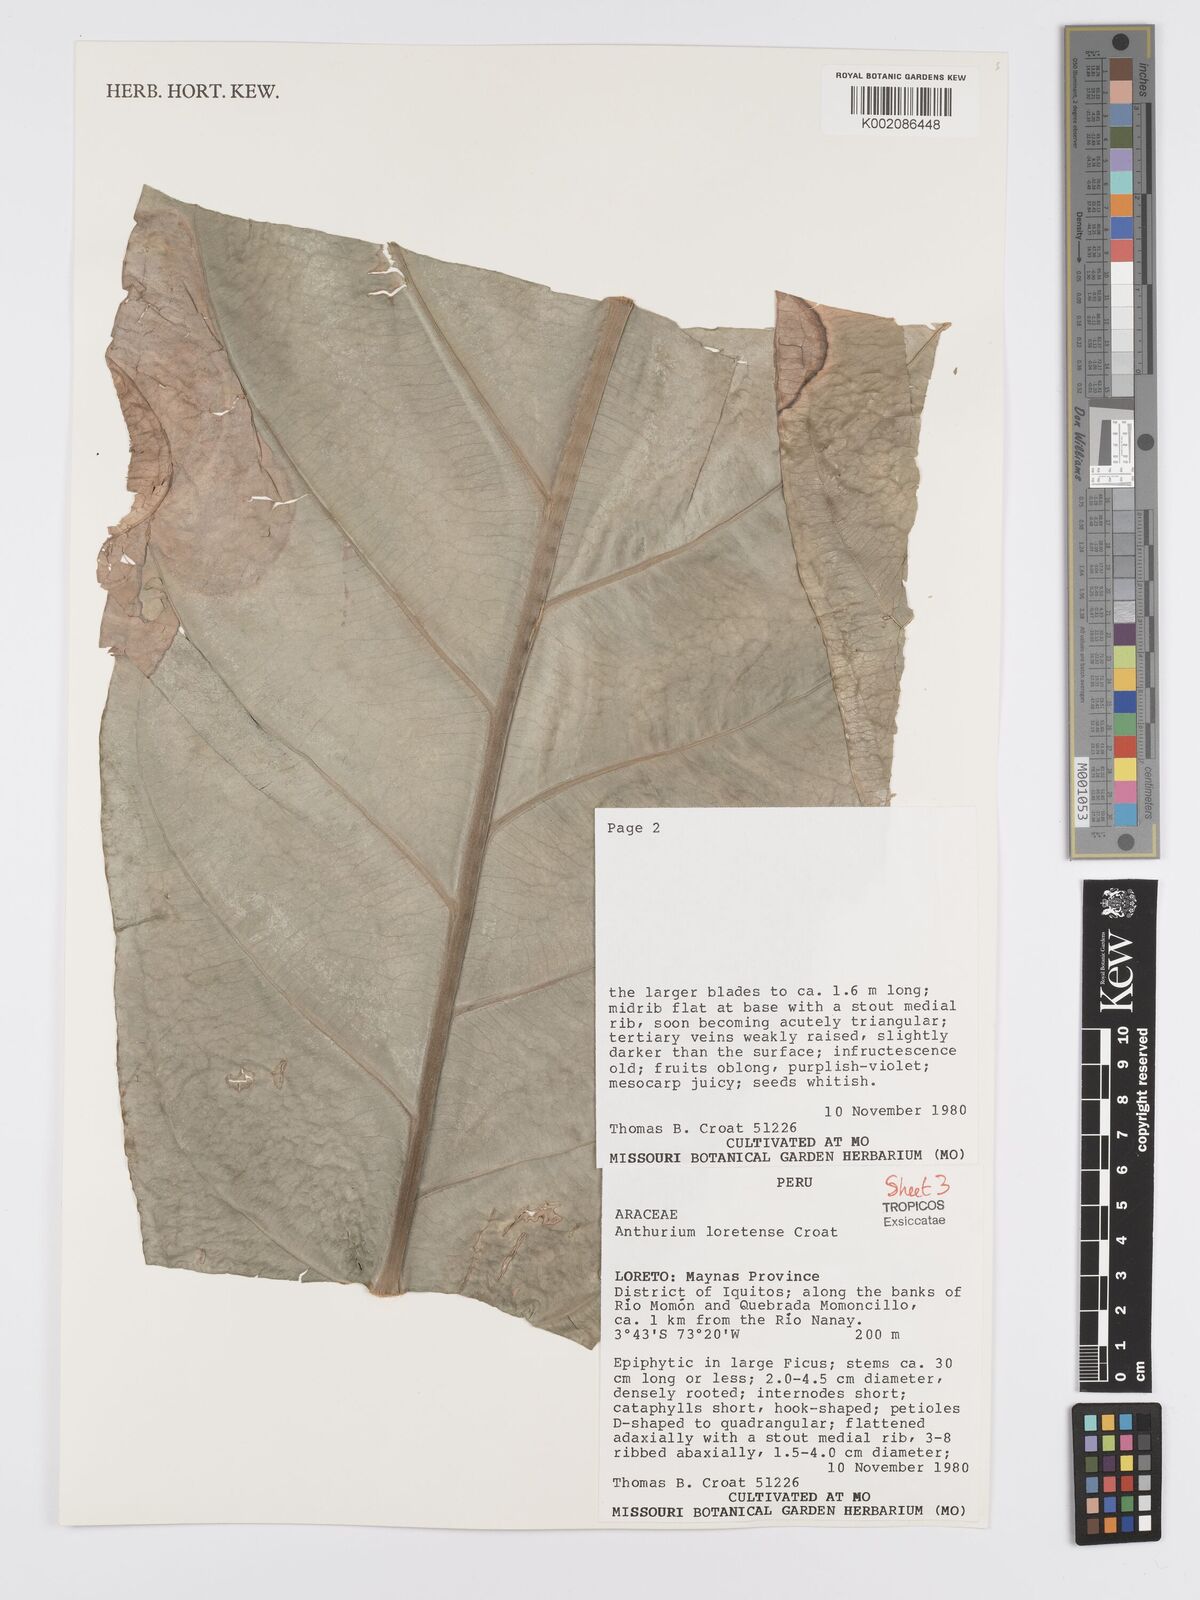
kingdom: Plantae
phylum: Tracheophyta
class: Liliopsida
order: Alismatales
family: Araceae
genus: Anthurium
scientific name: Anthurium loretense
